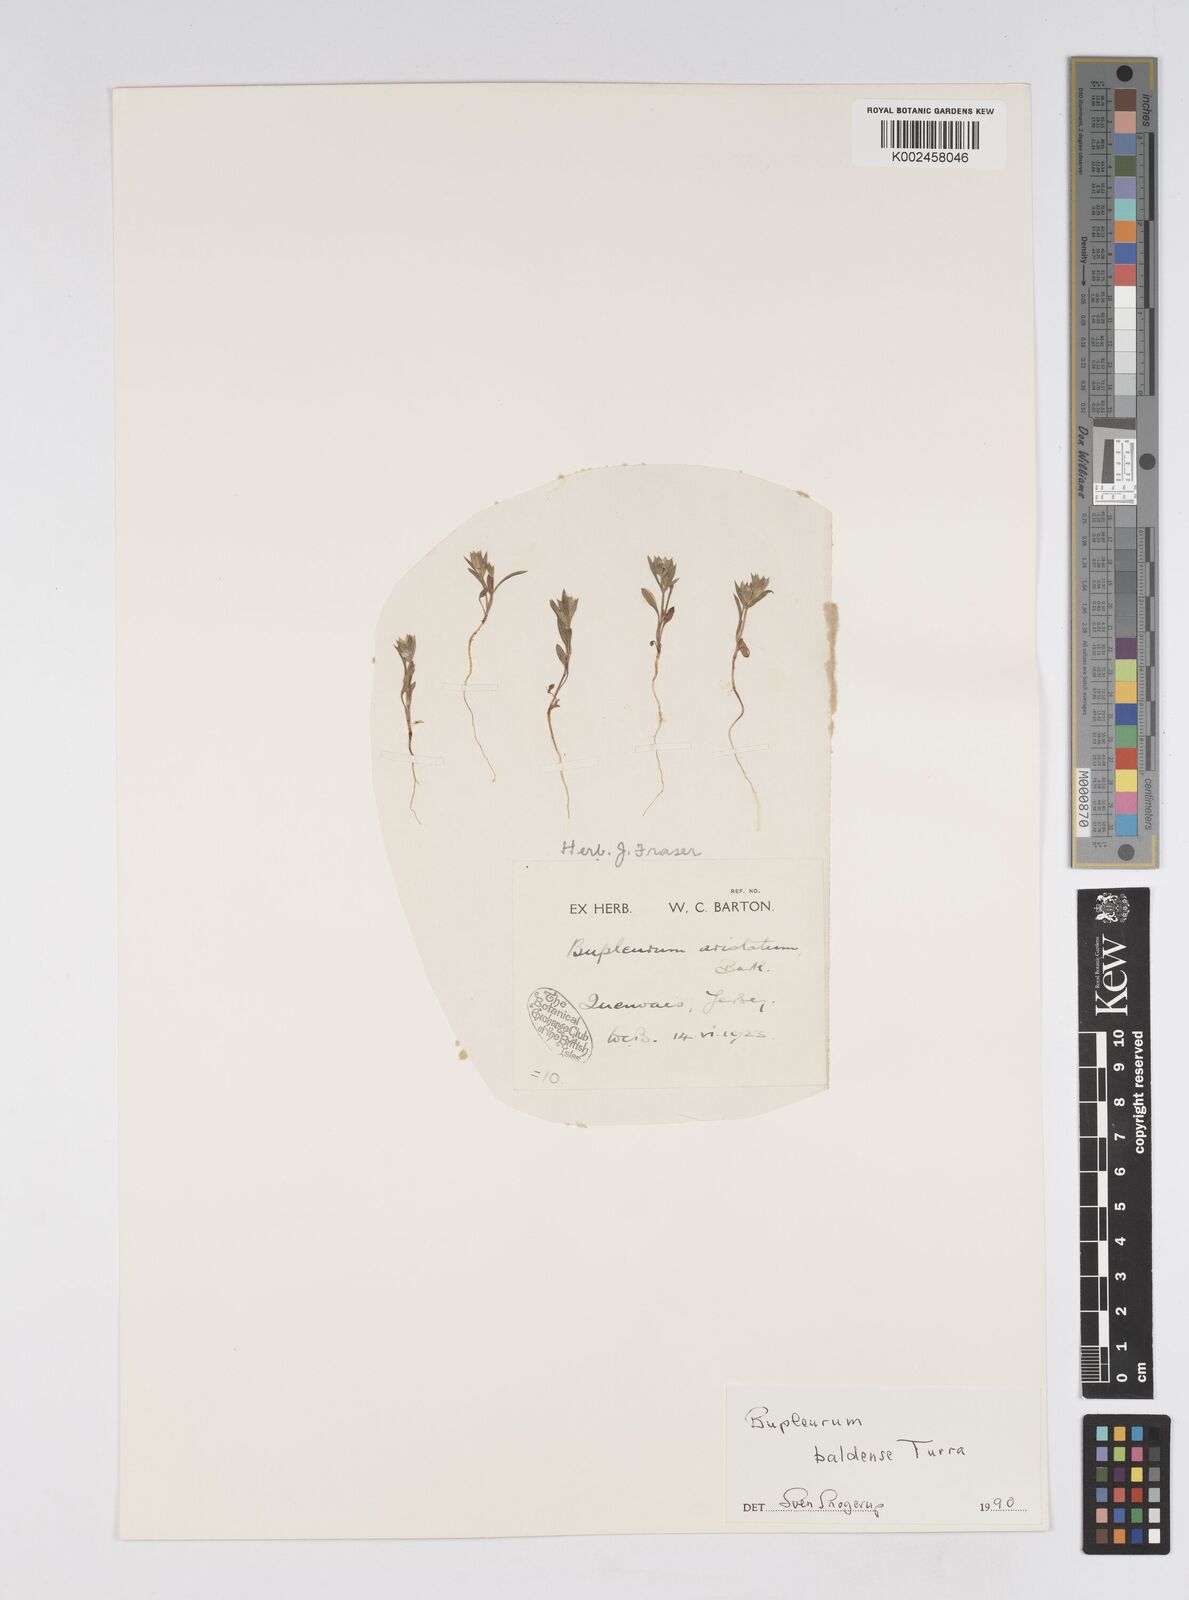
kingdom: Plantae
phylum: Tracheophyta
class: Magnoliopsida
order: Apiales
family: Apiaceae
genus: Bupleurum
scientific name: Bupleurum baldense
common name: Small hare's-ear
